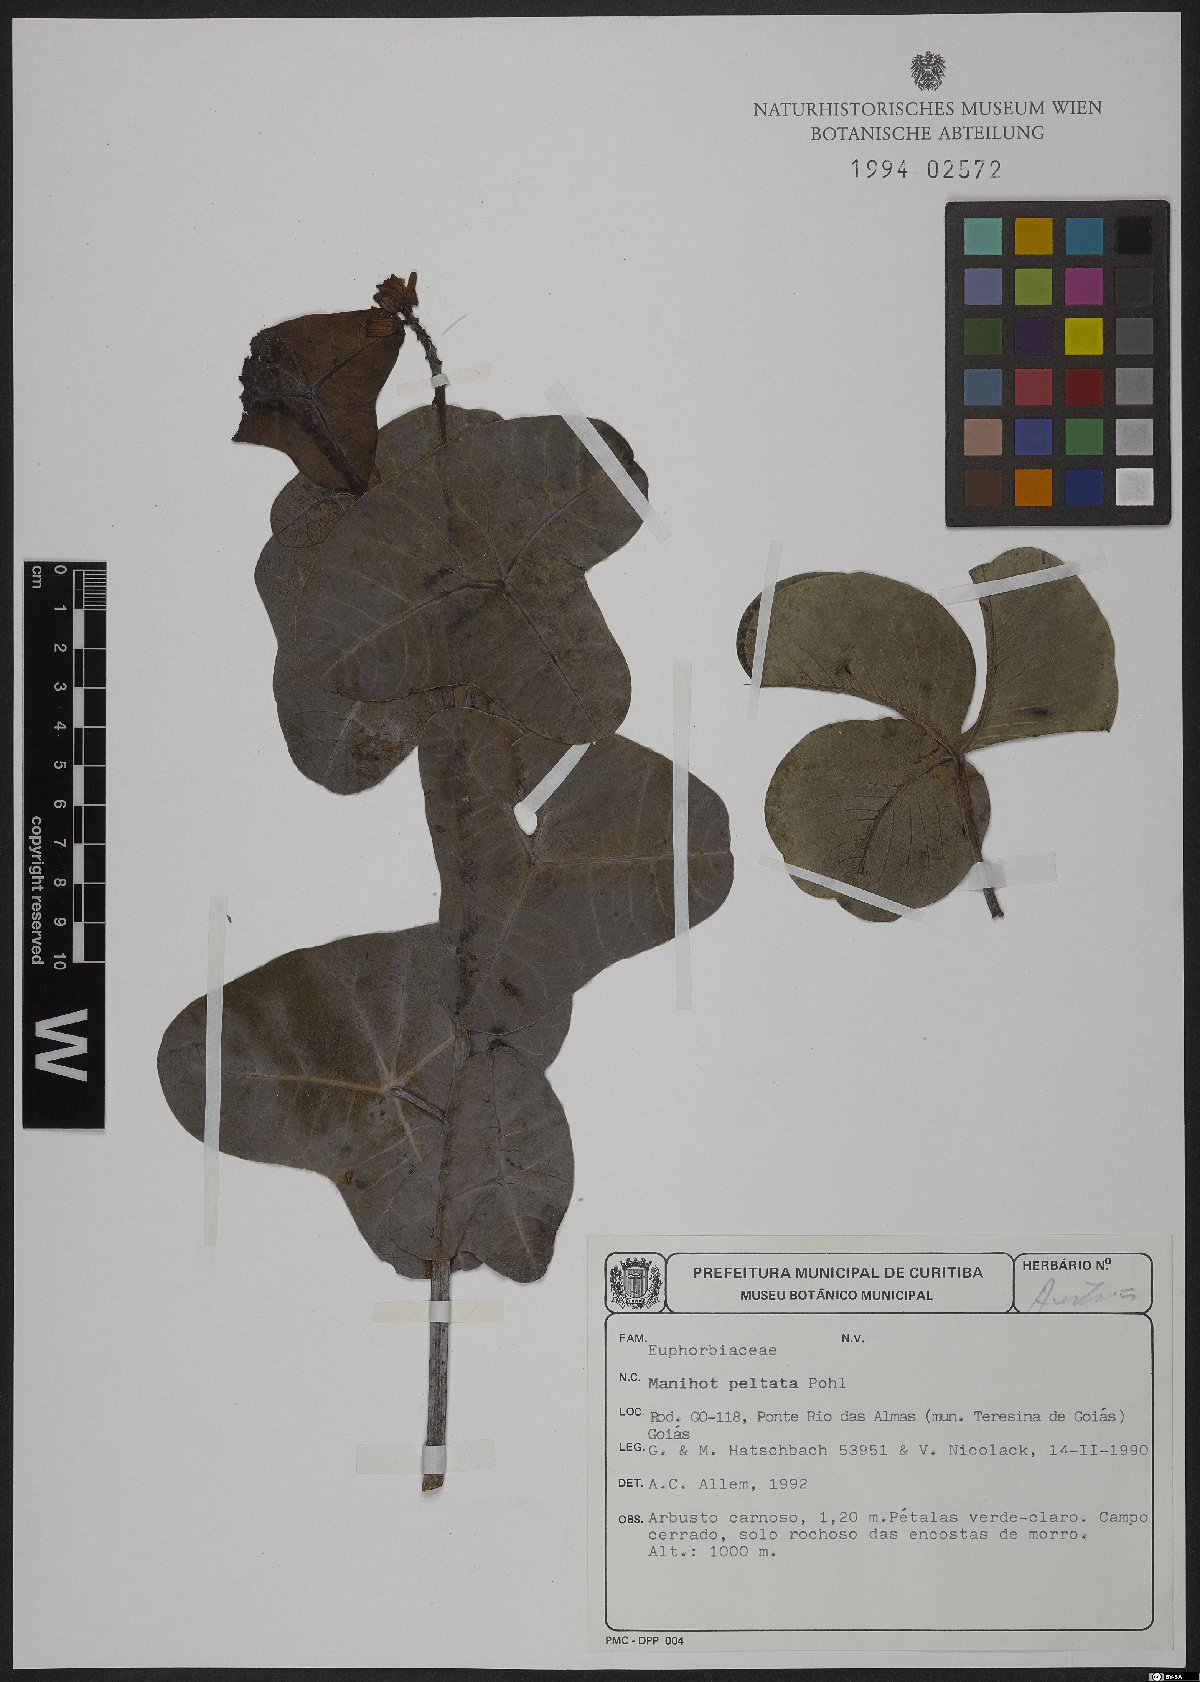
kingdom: Plantae
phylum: Tracheophyta
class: Magnoliopsida
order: Malpighiales
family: Euphorbiaceae
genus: Manihot
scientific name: Manihot peltata
